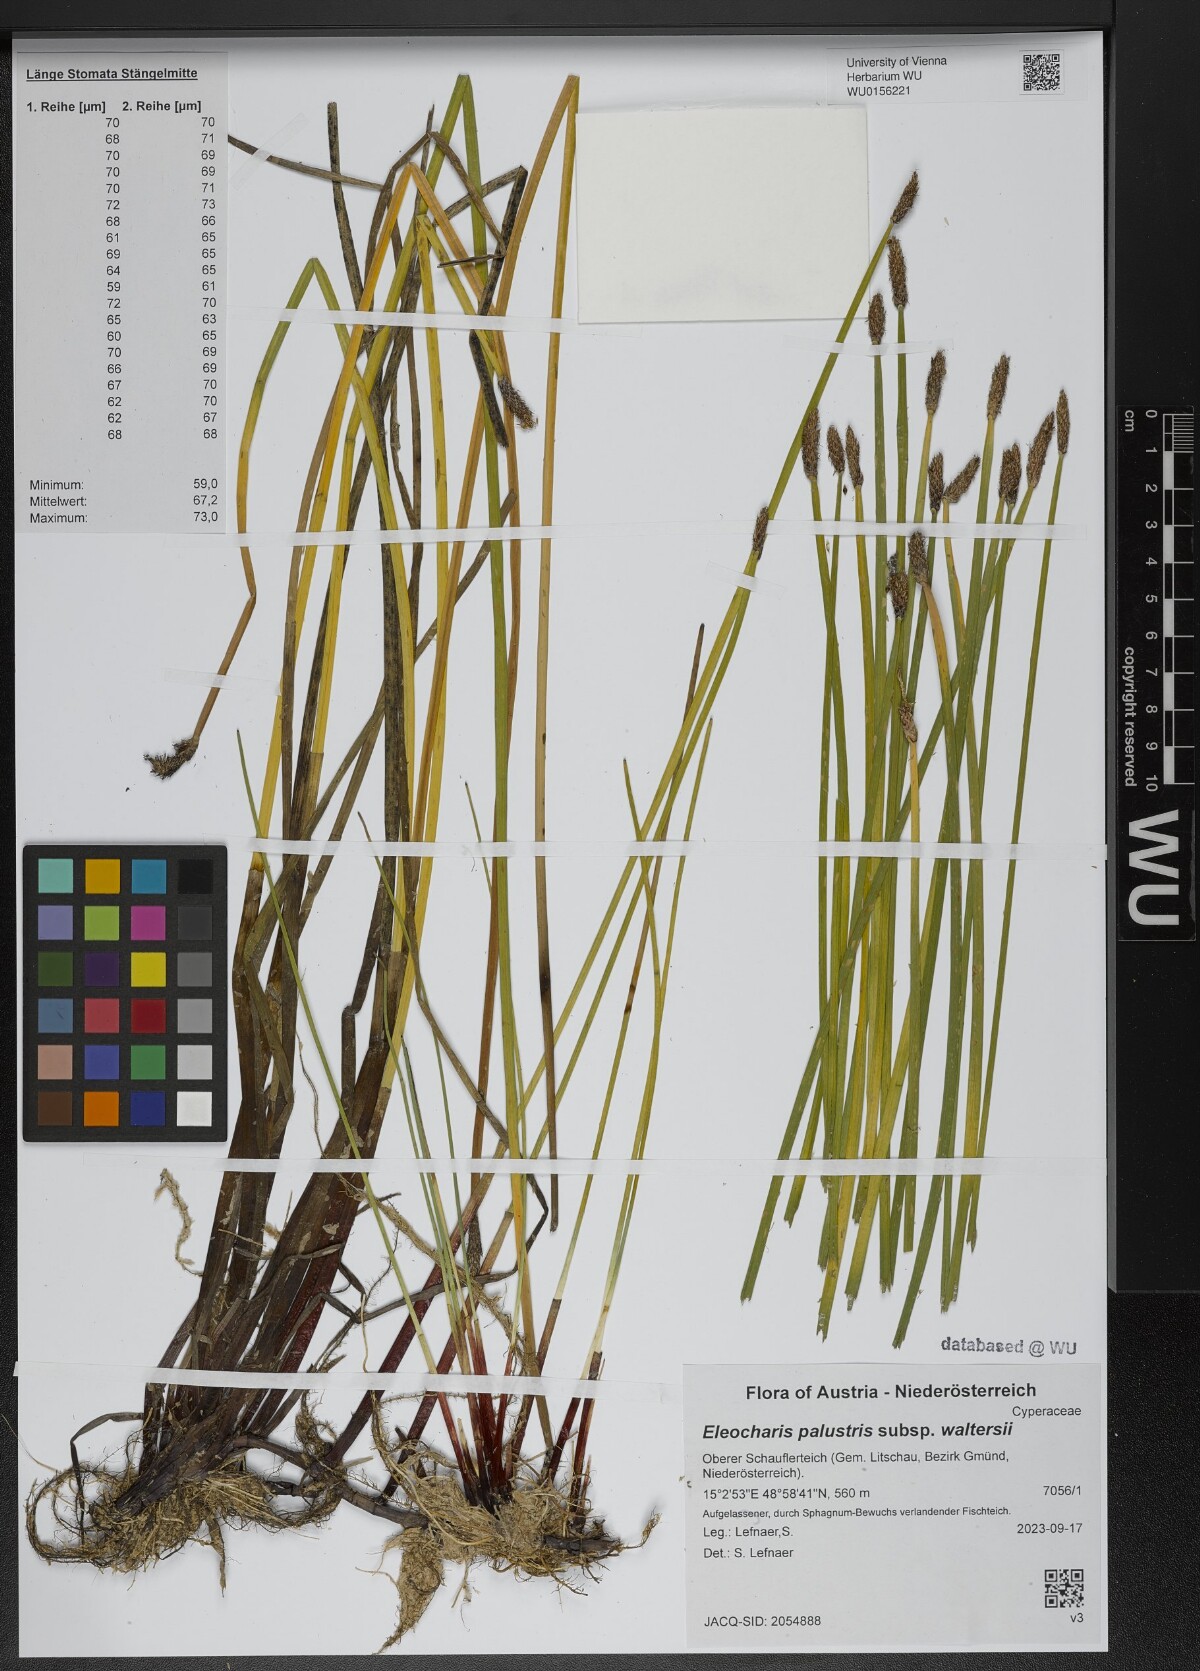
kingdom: Plantae
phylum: Tracheophyta
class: Liliopsida
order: Poales
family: Cyperaceae
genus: Eleocharis
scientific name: Eleocharis palustris
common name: Common spike-rush
